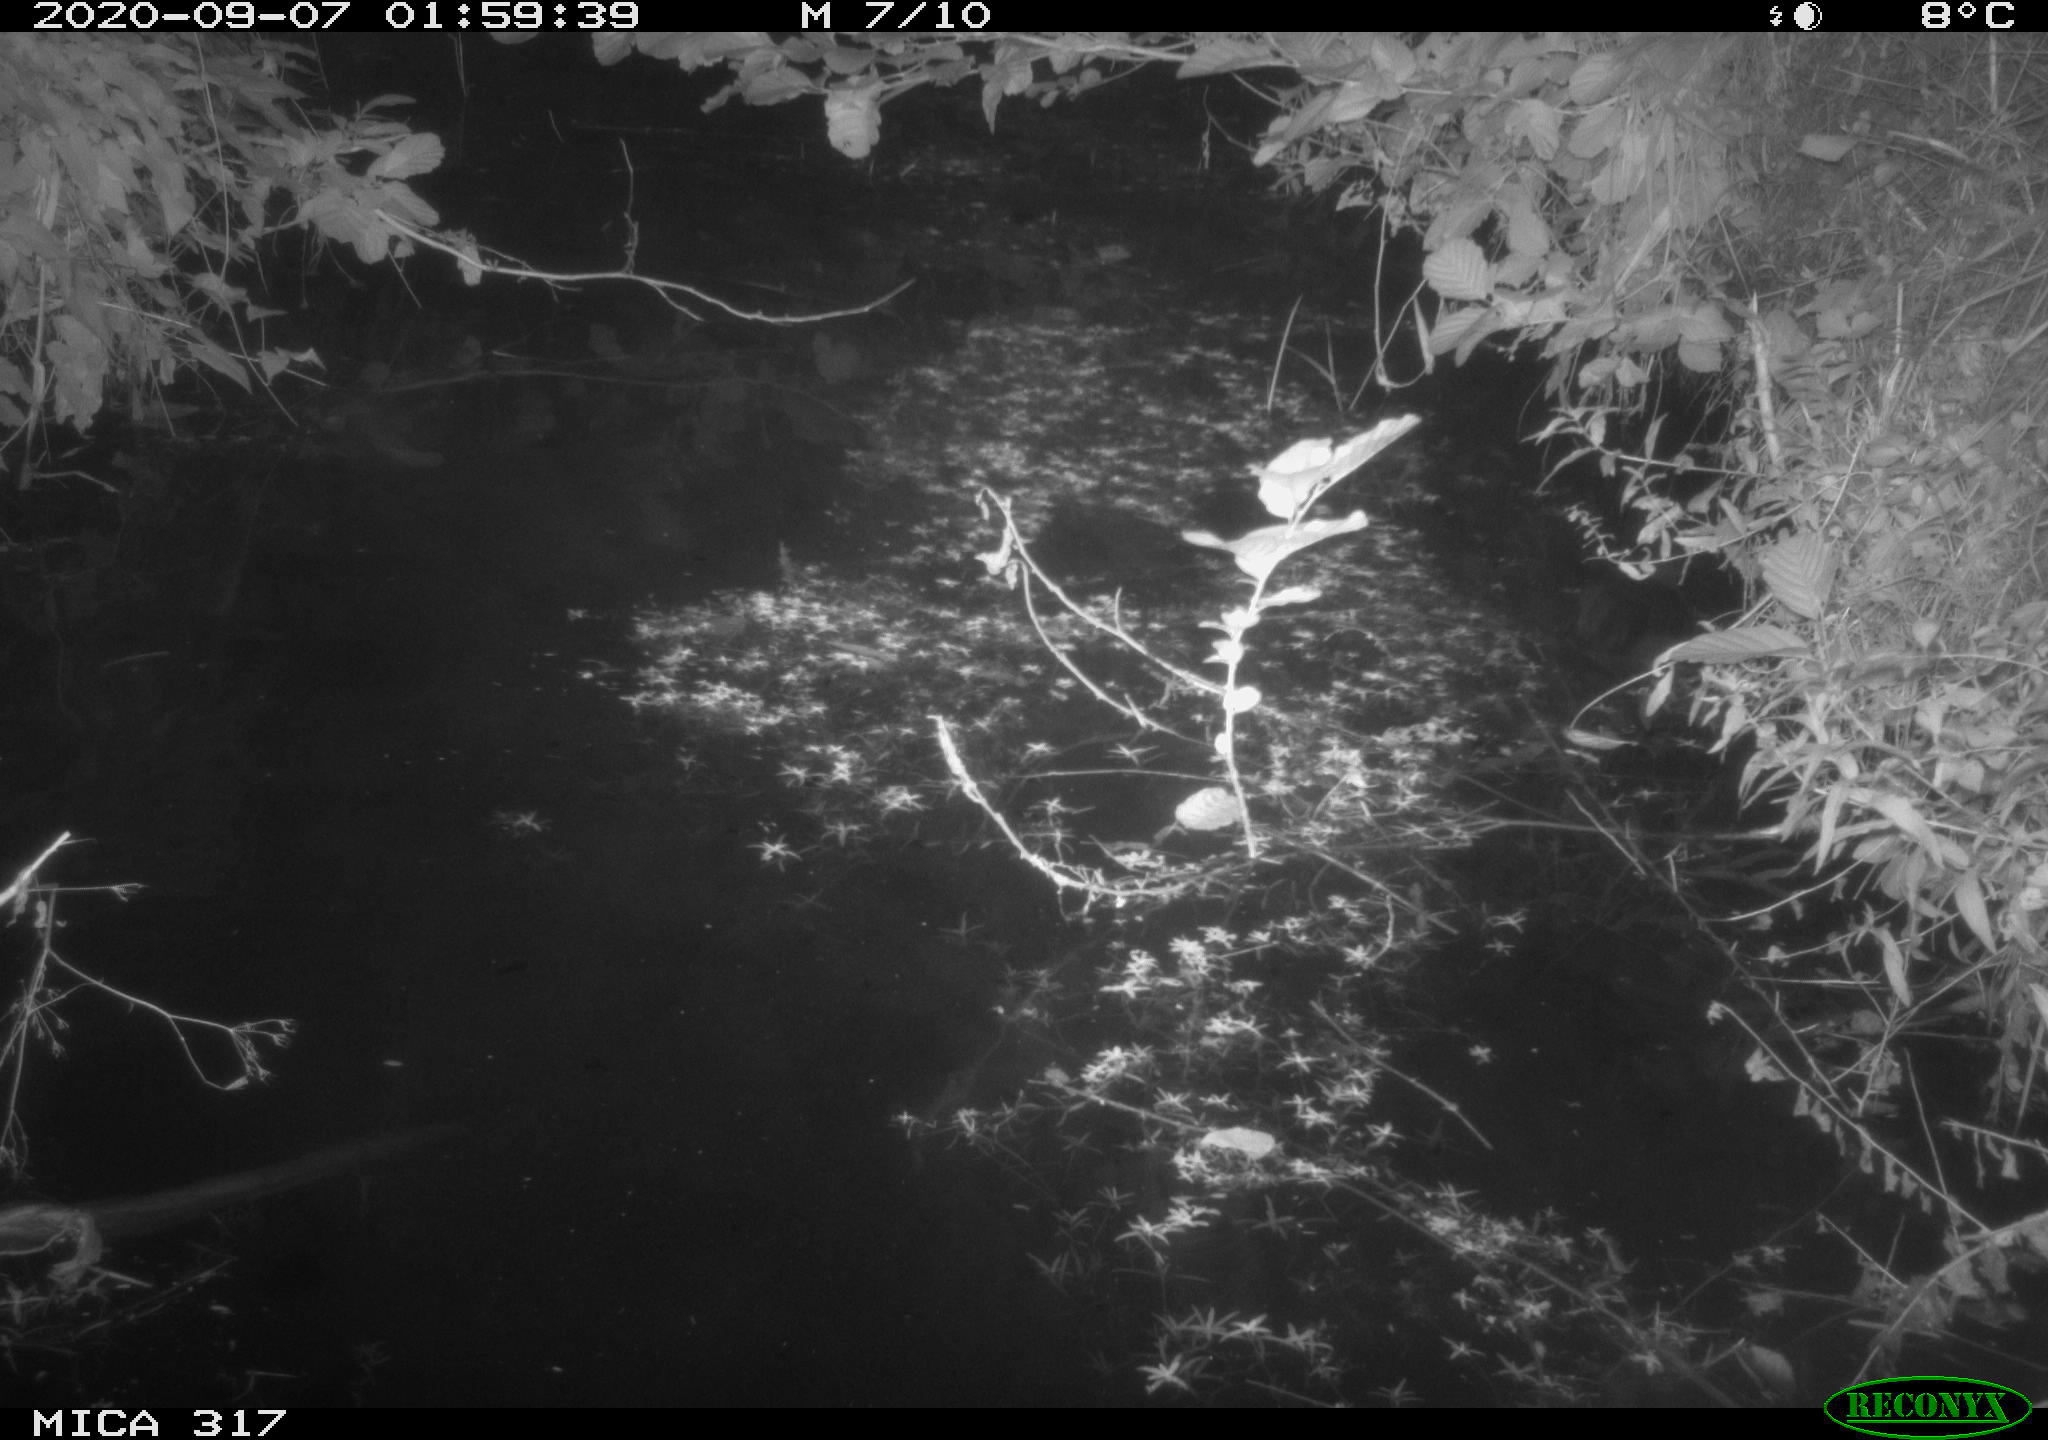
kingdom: Animalia
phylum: Chordata
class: Aves
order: Anseriformes
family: Anatidae
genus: Anas
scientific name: Anas platyrhynchos
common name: Mallard
